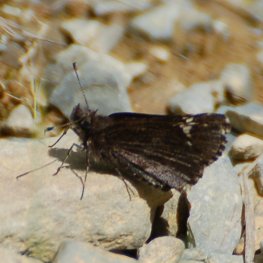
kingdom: Animalia
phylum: Arthropoda
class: Insecta
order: Lepidoptera
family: Hesperiidae
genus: Mastor
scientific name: Mastor vialis
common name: Common Roadside-Skipper
